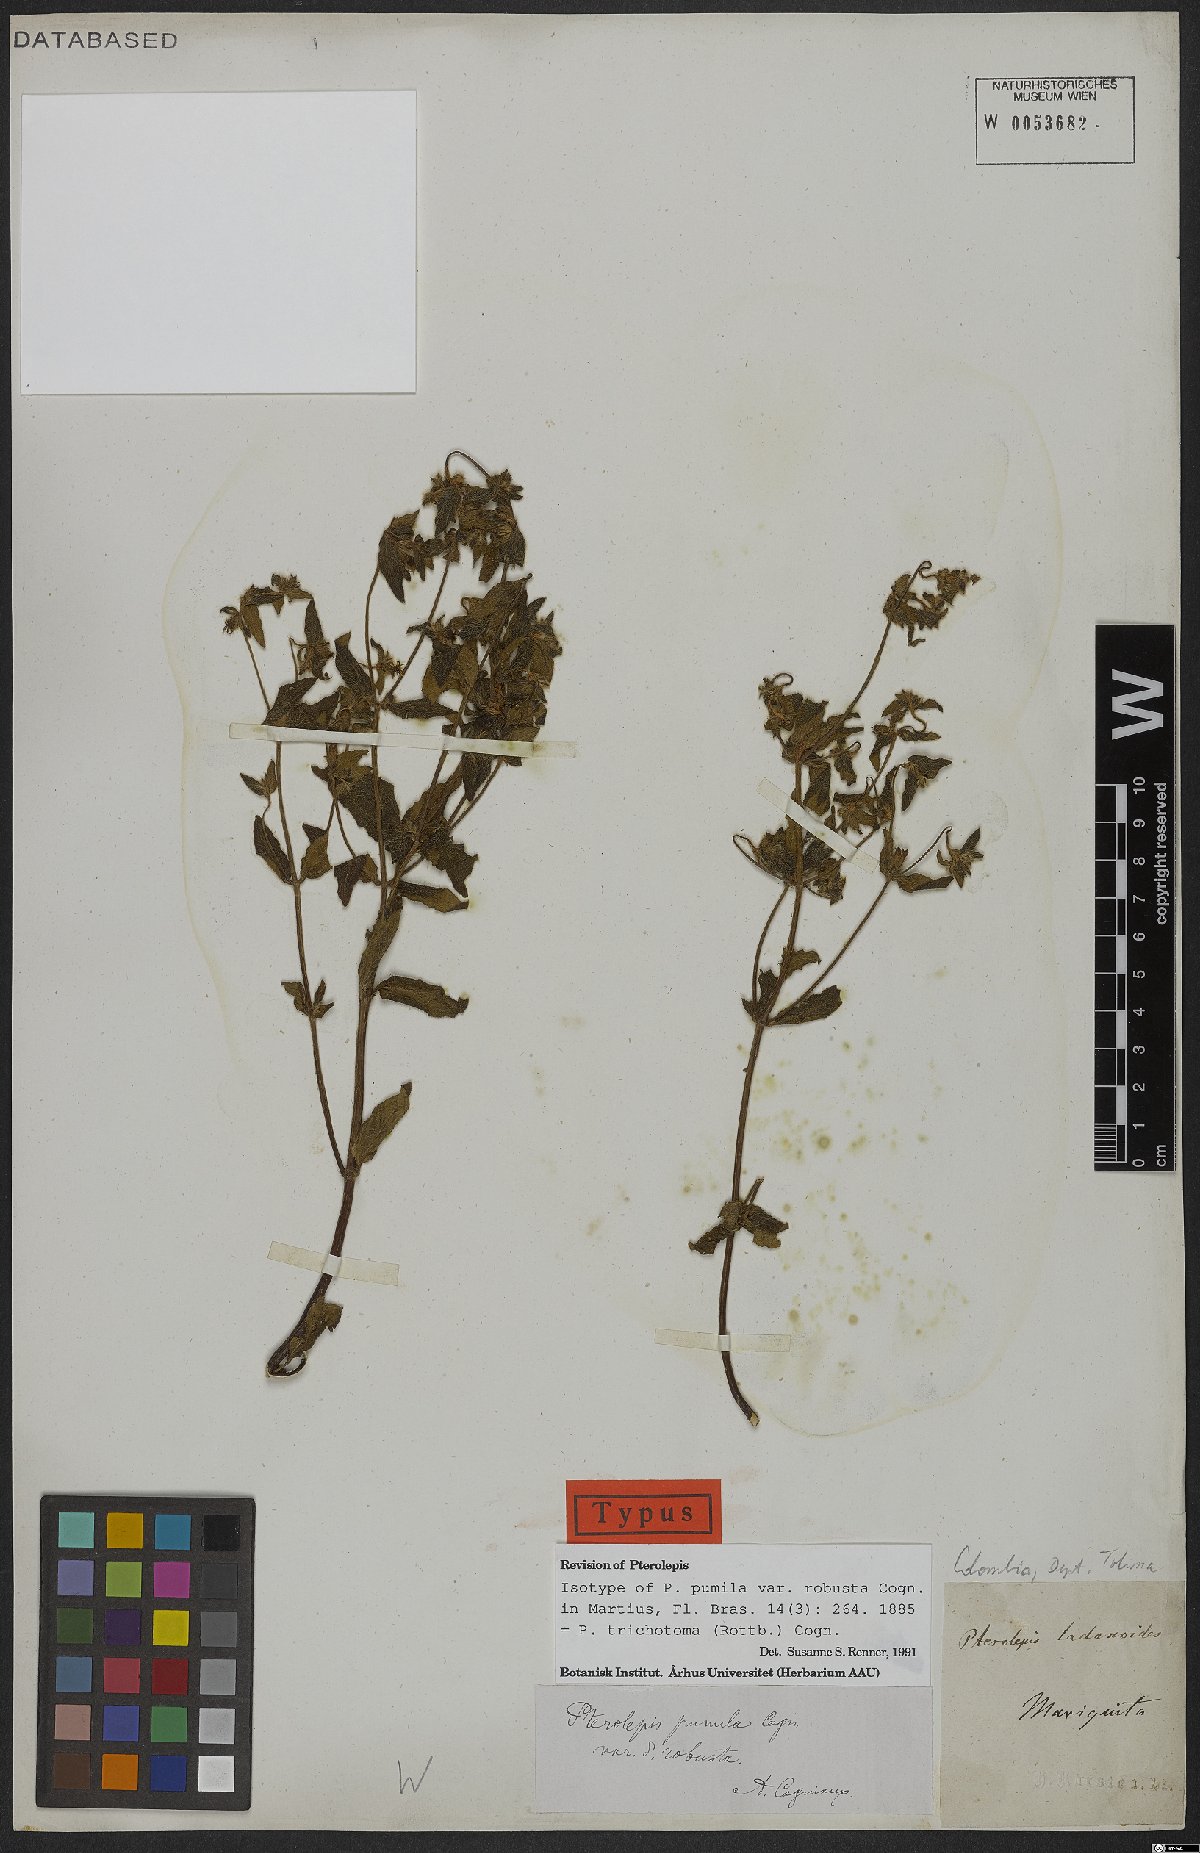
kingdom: Plantae
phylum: Tracheophyta
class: Magnoliopsida
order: Myrtales
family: Melastomataceae
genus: Pterolepis
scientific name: Pterolepis trichotoma
